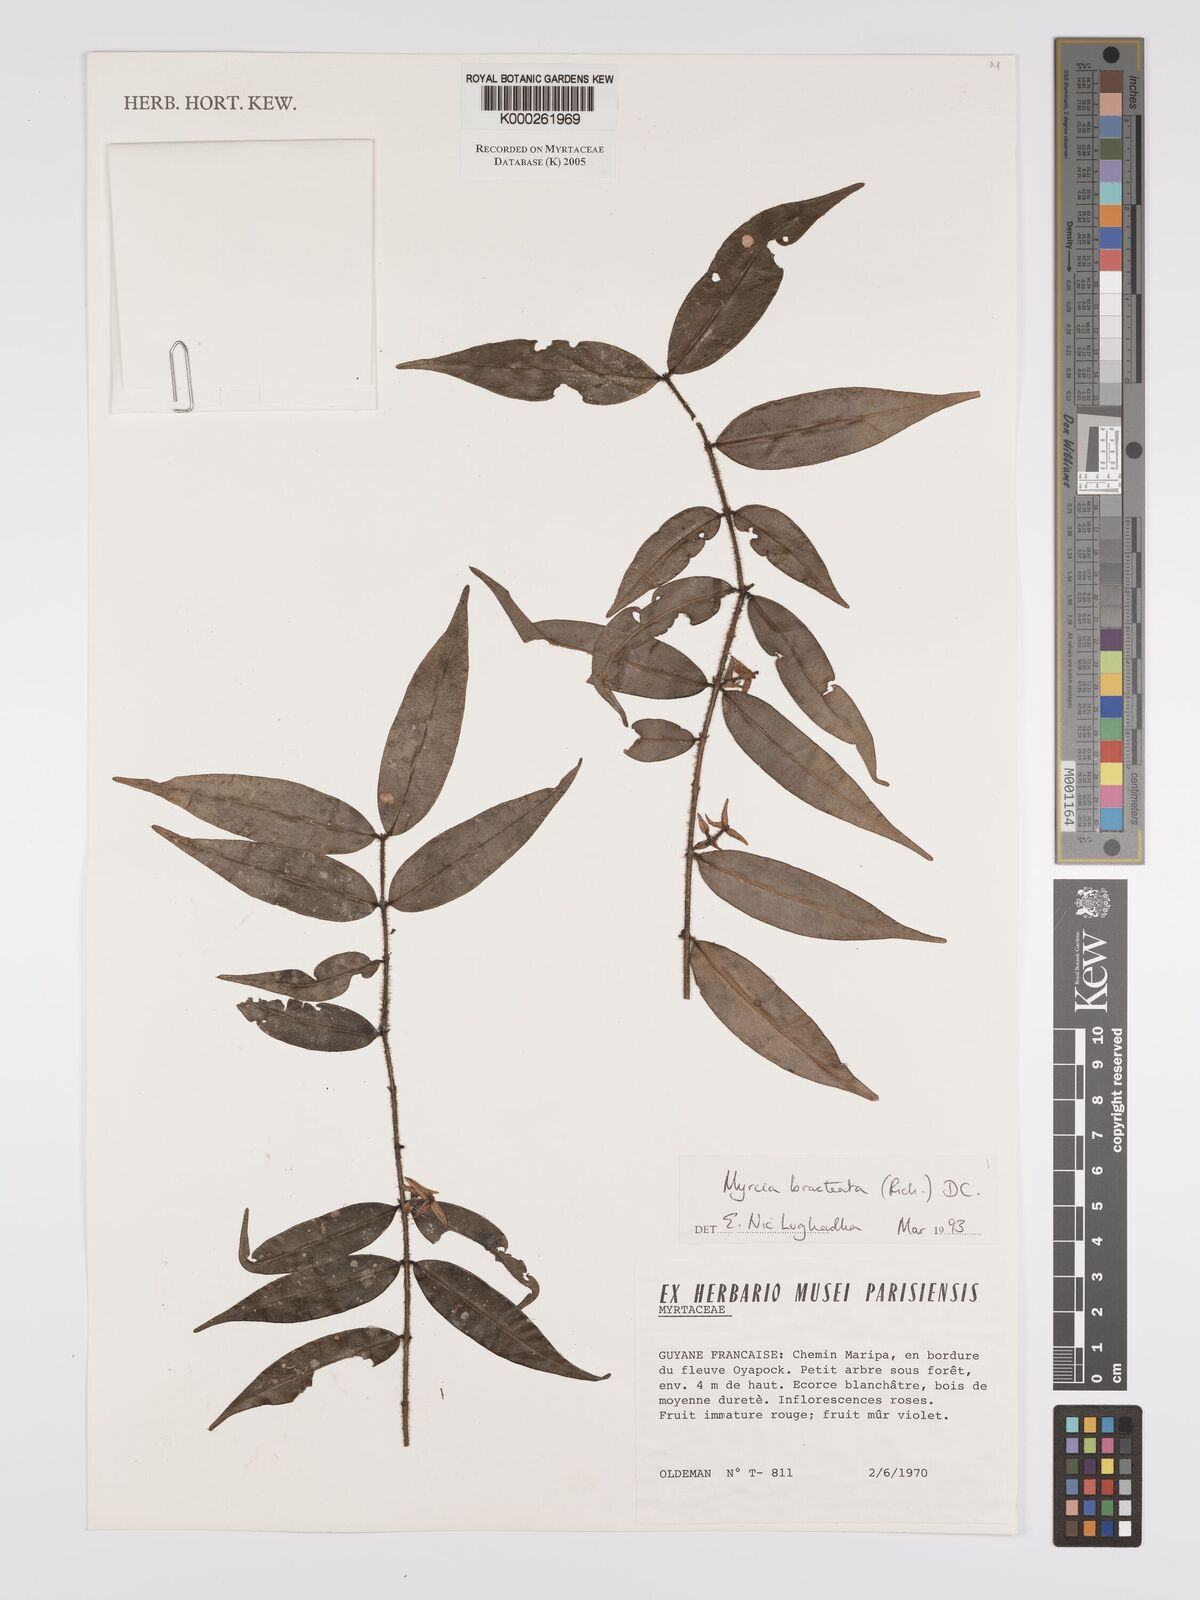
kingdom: Plantae
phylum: Tracheophyta
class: Magnoliopsida
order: Myrtales
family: Myrtaceae
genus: Myrcia
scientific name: Myrcia bracteata
